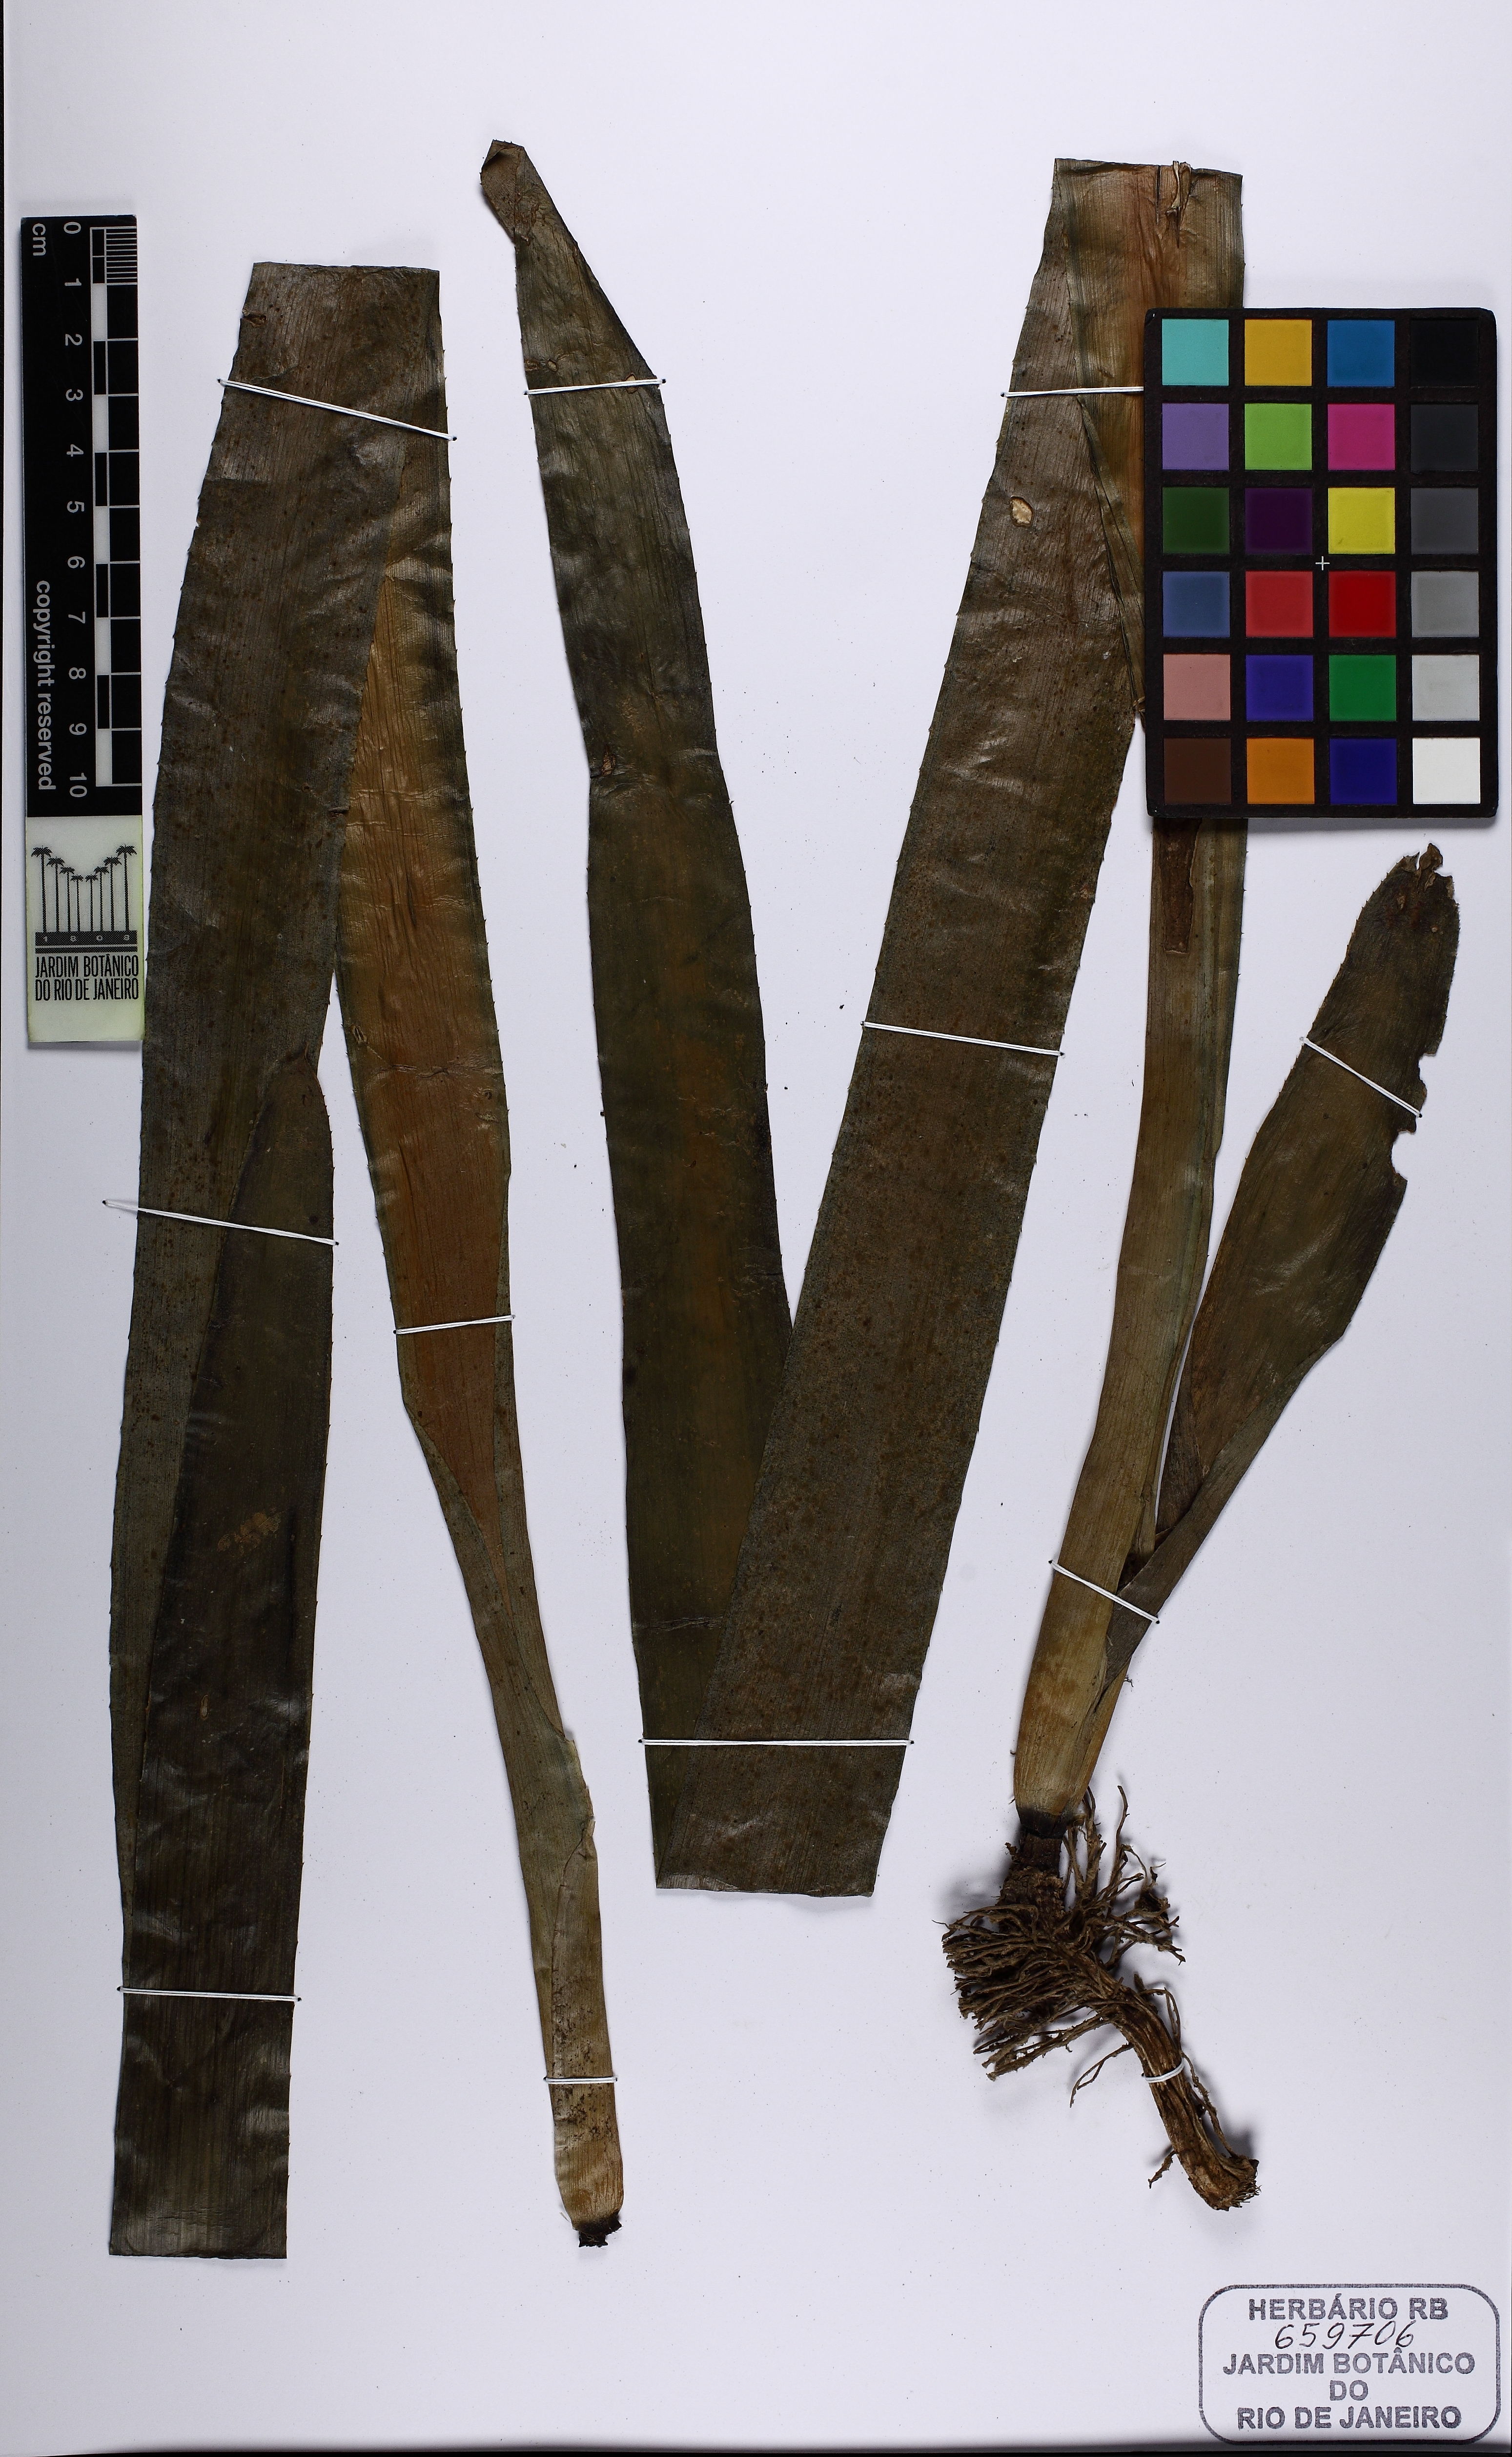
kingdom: Plantae
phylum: Tracheophyta
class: Liliopsida
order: Poales
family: Bromeliaceae
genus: Billbergia
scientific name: Billbergia euphemiae
